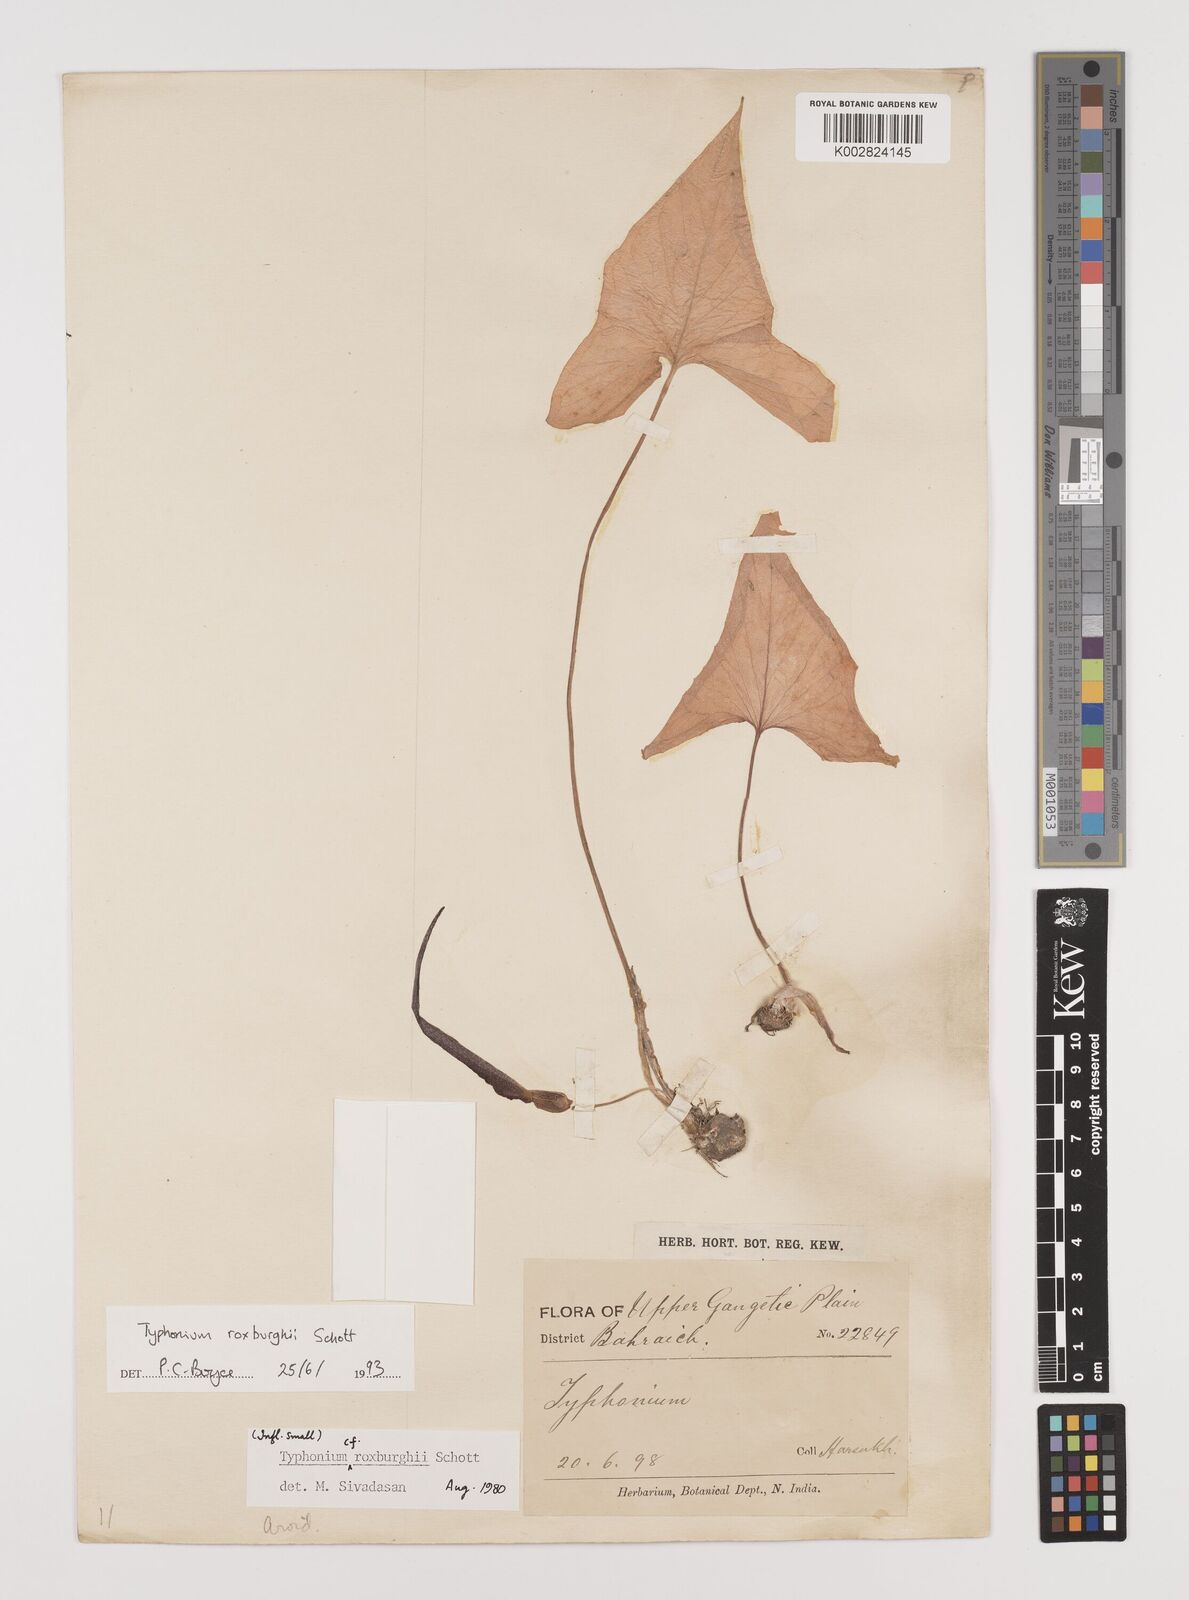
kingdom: Plantae
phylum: Tracheophyta
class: Liliopsida
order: Alismatales
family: Araceae
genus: Typhonium
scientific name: Typhonium roxburghii
